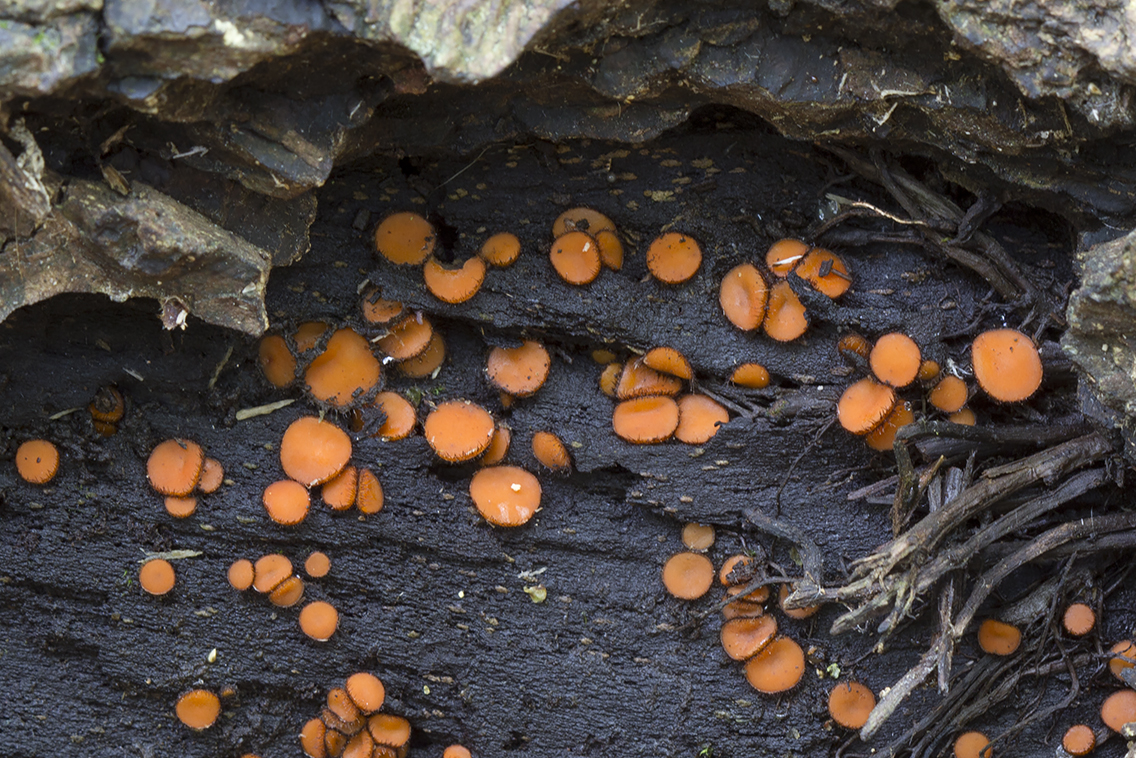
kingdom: Fungi
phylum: Ascomycota
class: Pezizomycetes
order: Pezizales
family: Pyronemataceae
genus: Scutellinia
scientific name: Scutellinia scutellata
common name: frynset skjoldbæger
